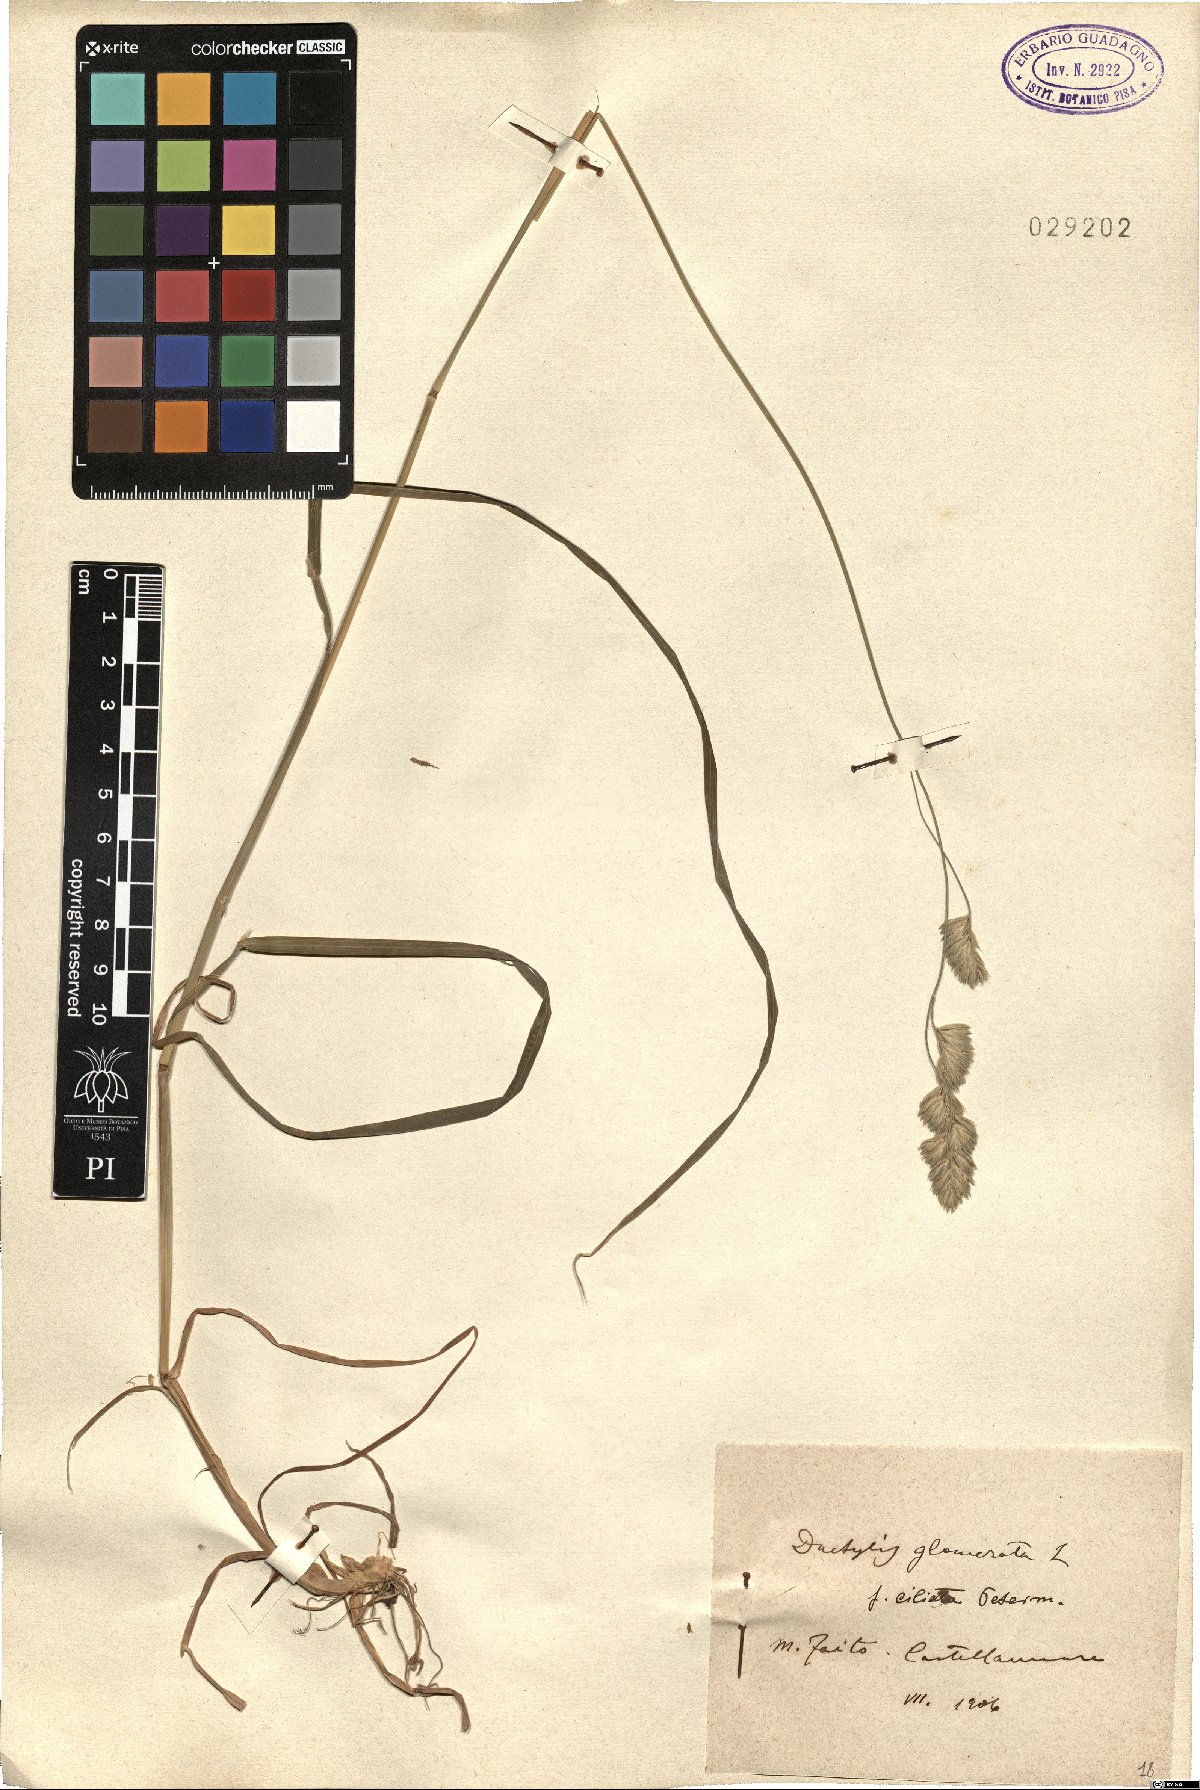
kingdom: Plantae
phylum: Tracheophyta
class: Liliopsida
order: Poales
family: Poaceae
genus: Dactylis
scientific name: Dactylis glomerata
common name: Orchardgrass
